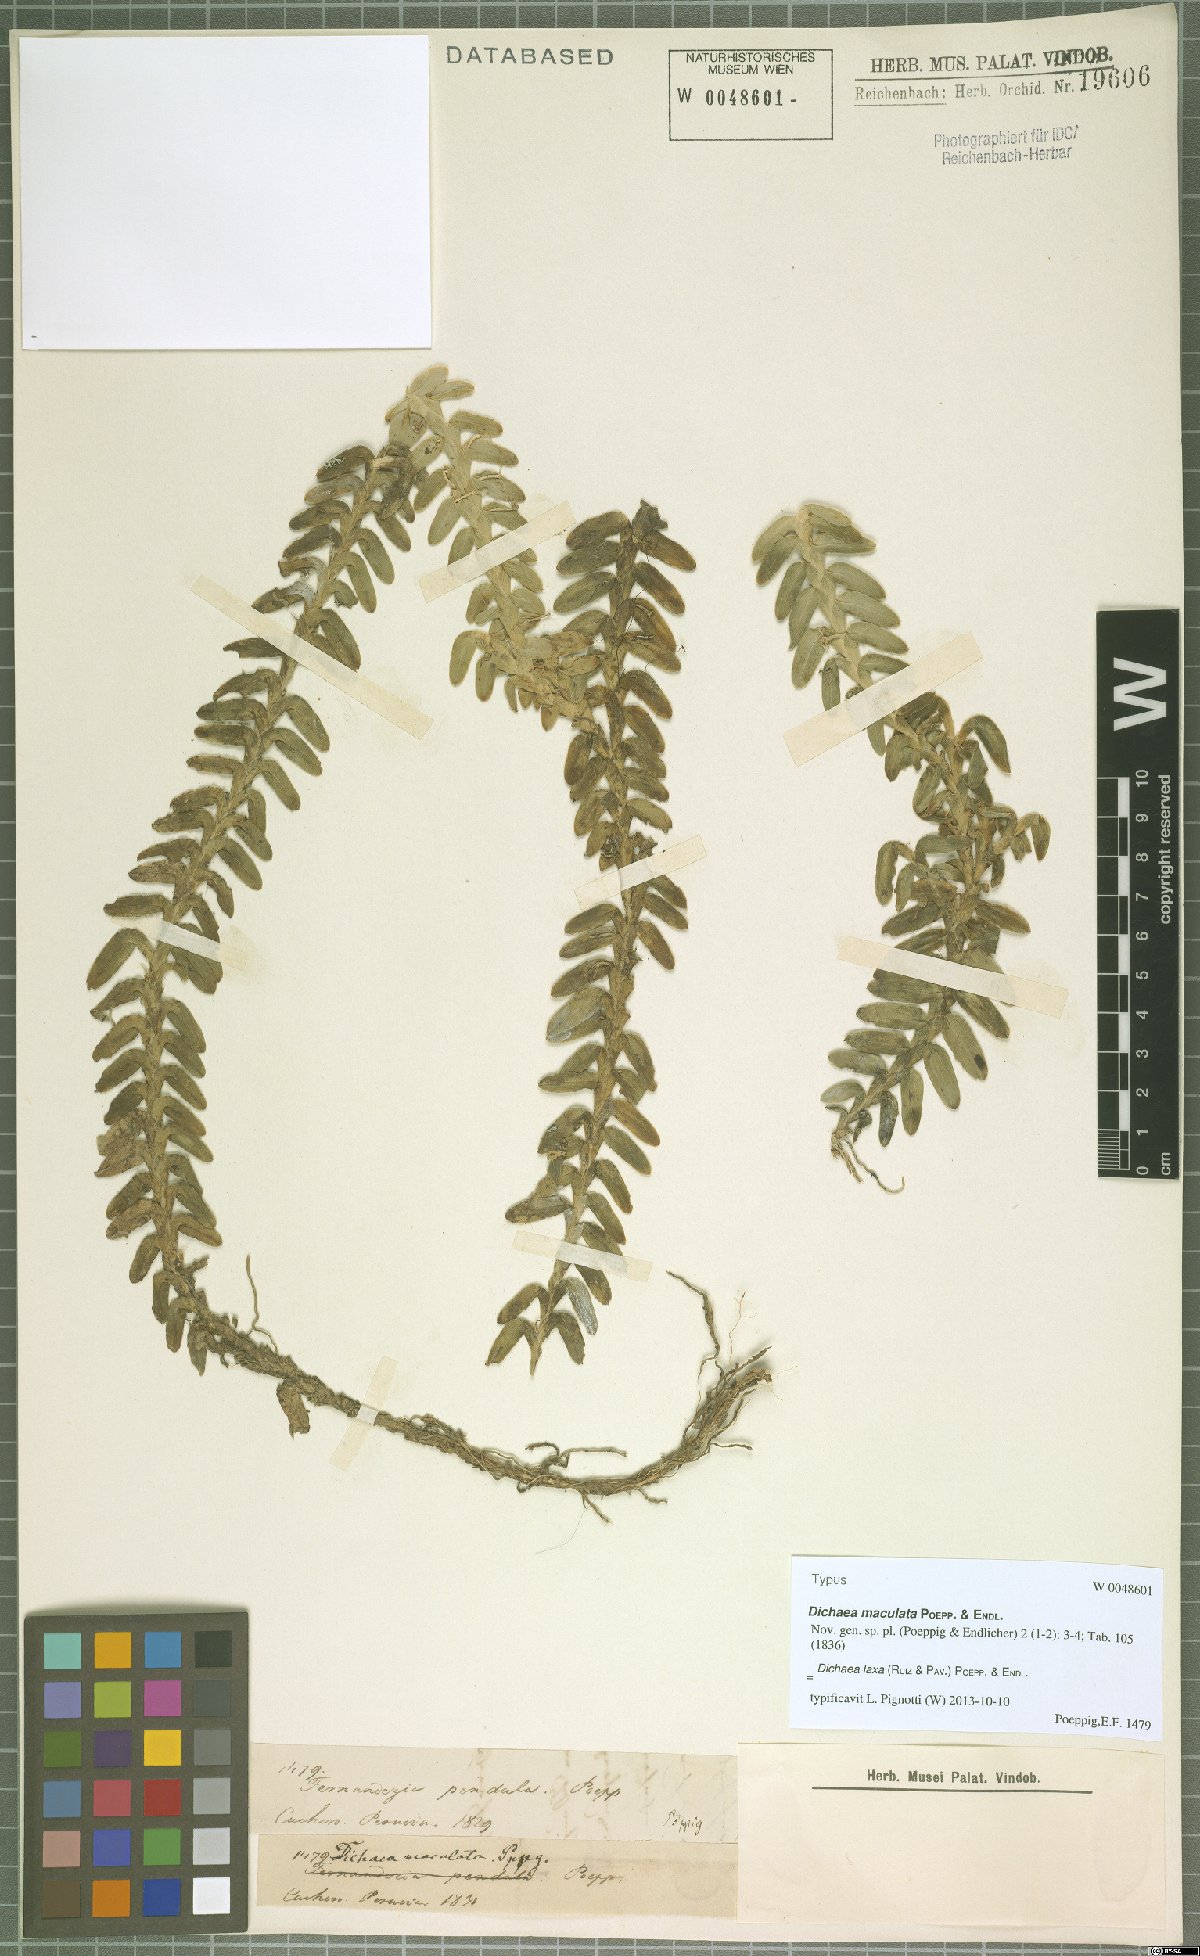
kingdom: Plantae
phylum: Tracheophyta
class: Liliopsida
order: Asparagales
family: Orchidaceae
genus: Dichaea
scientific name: Dichaea laxa
